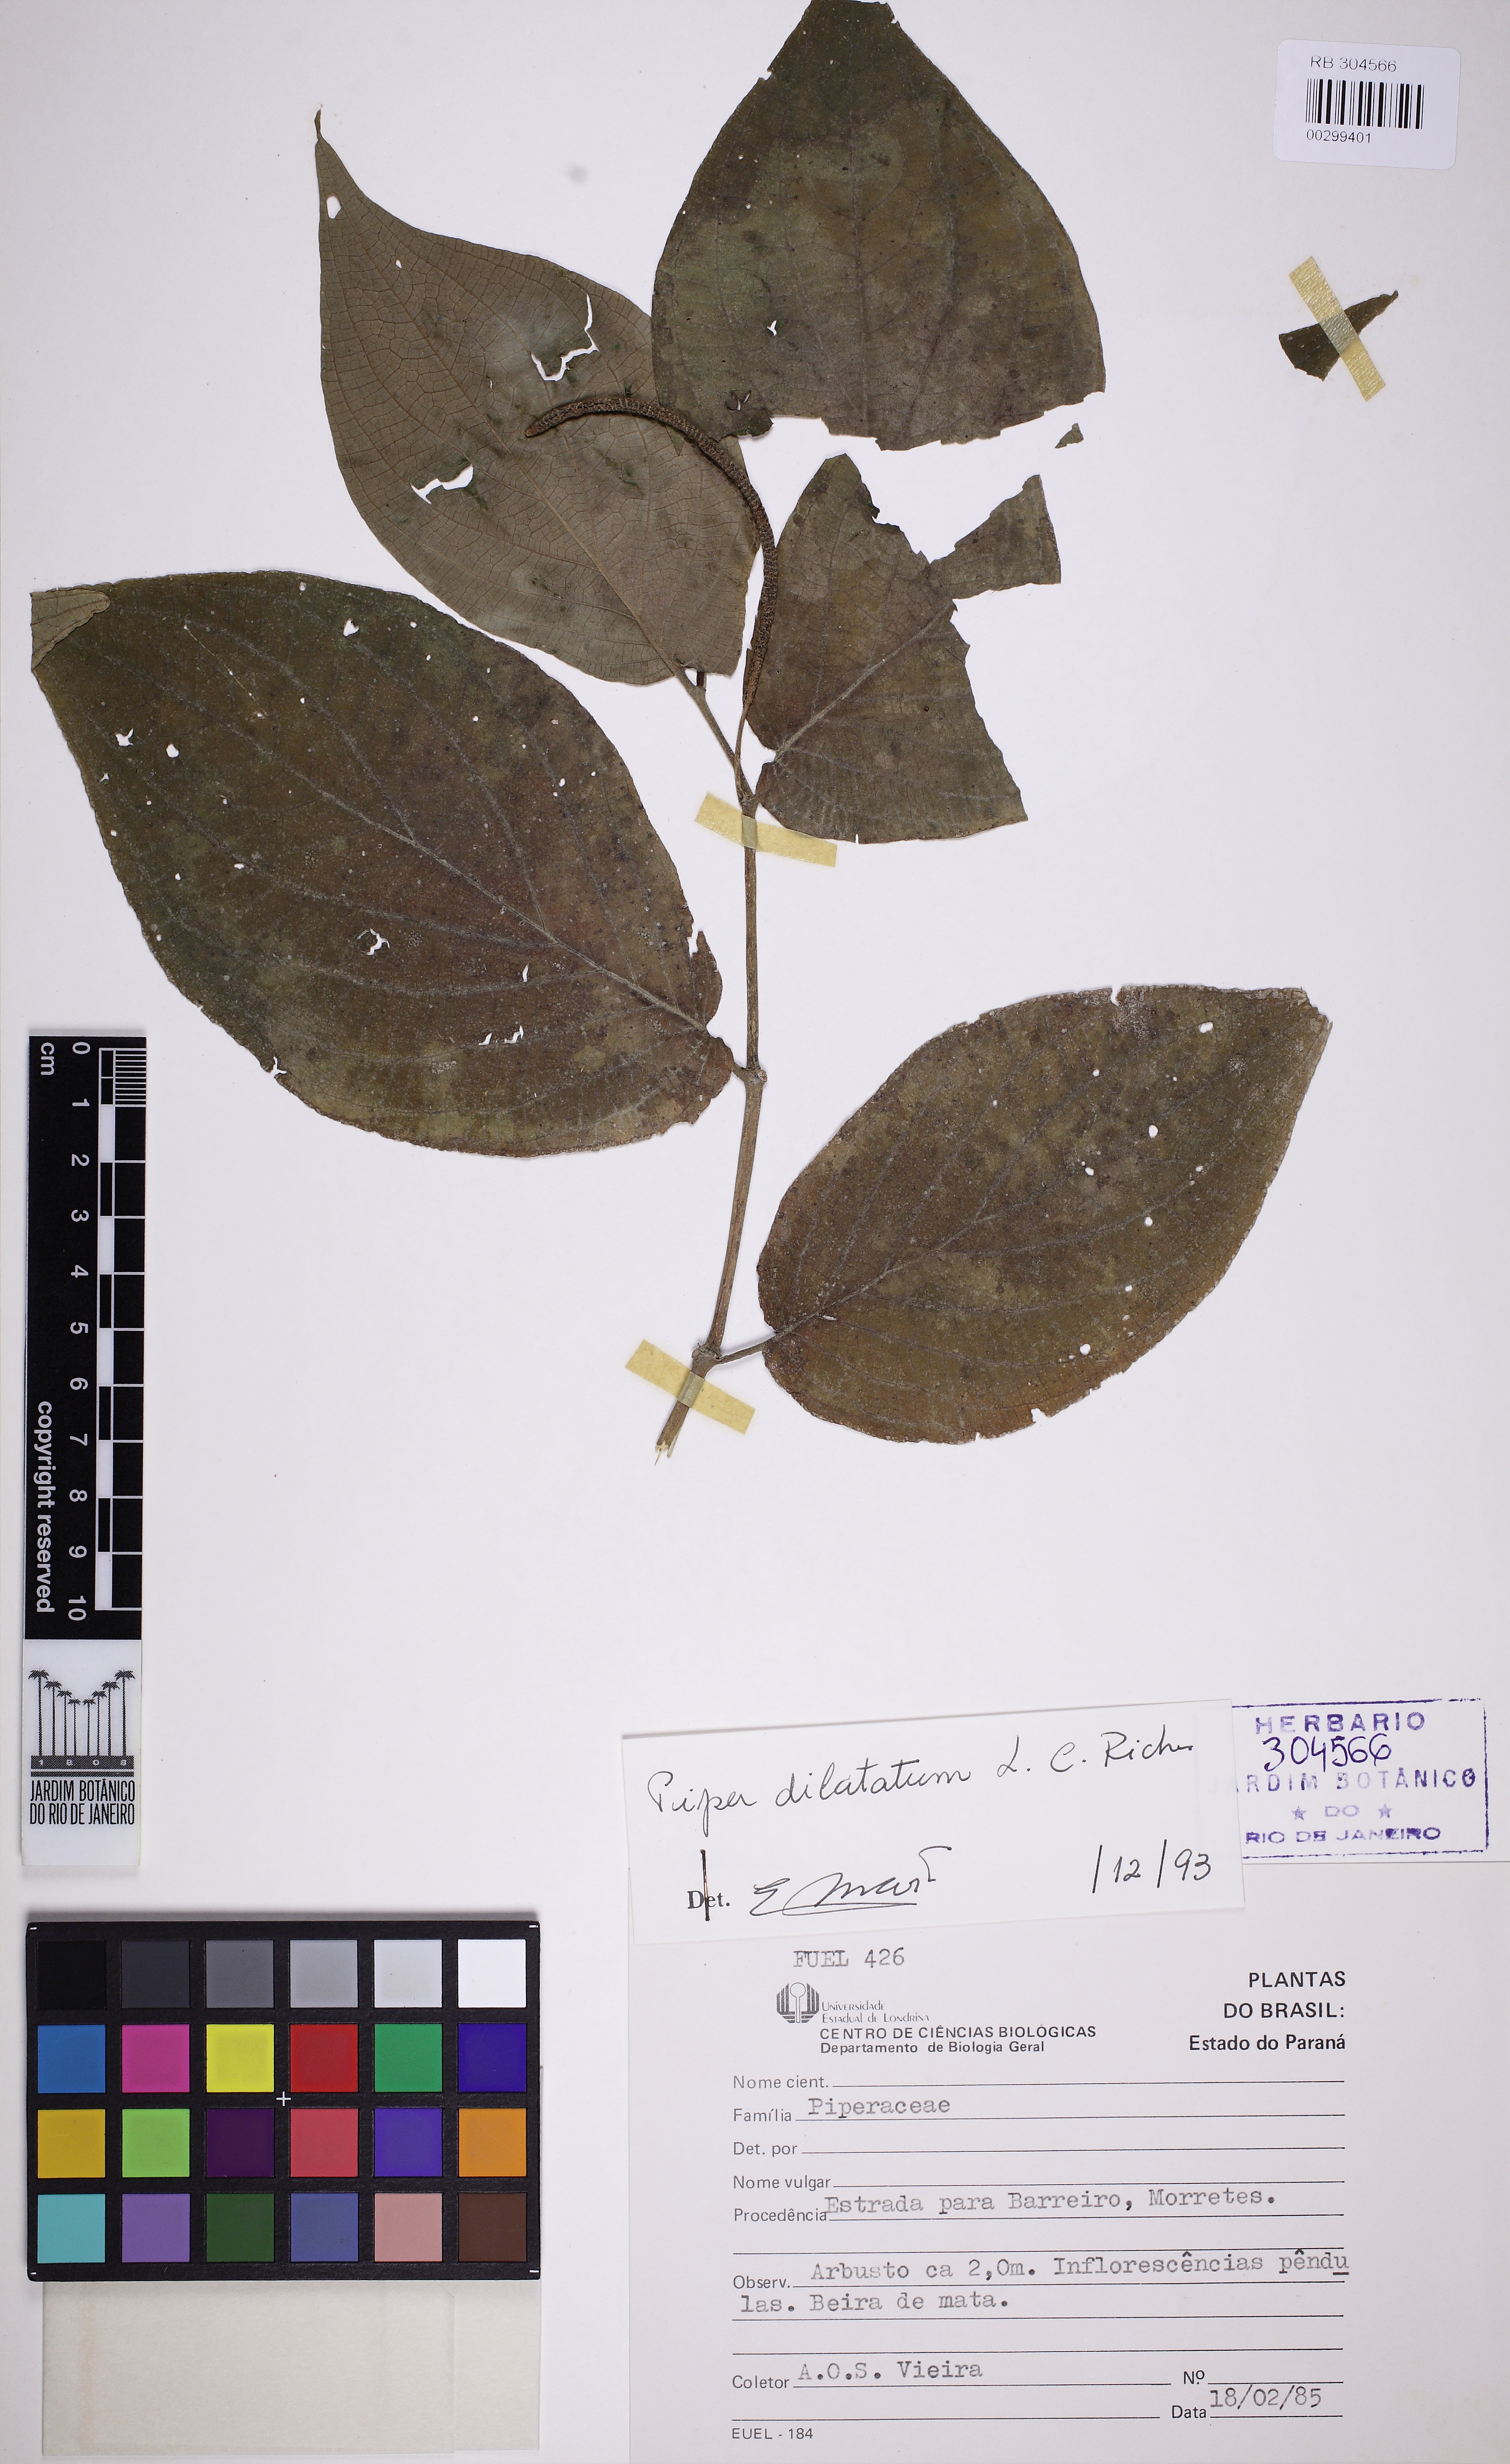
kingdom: Plantae
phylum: Tracheophyta
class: Magnoliopsida
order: Piperales
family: Piperaceae
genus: Piper
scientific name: Piper dilatatum
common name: Higuillo
